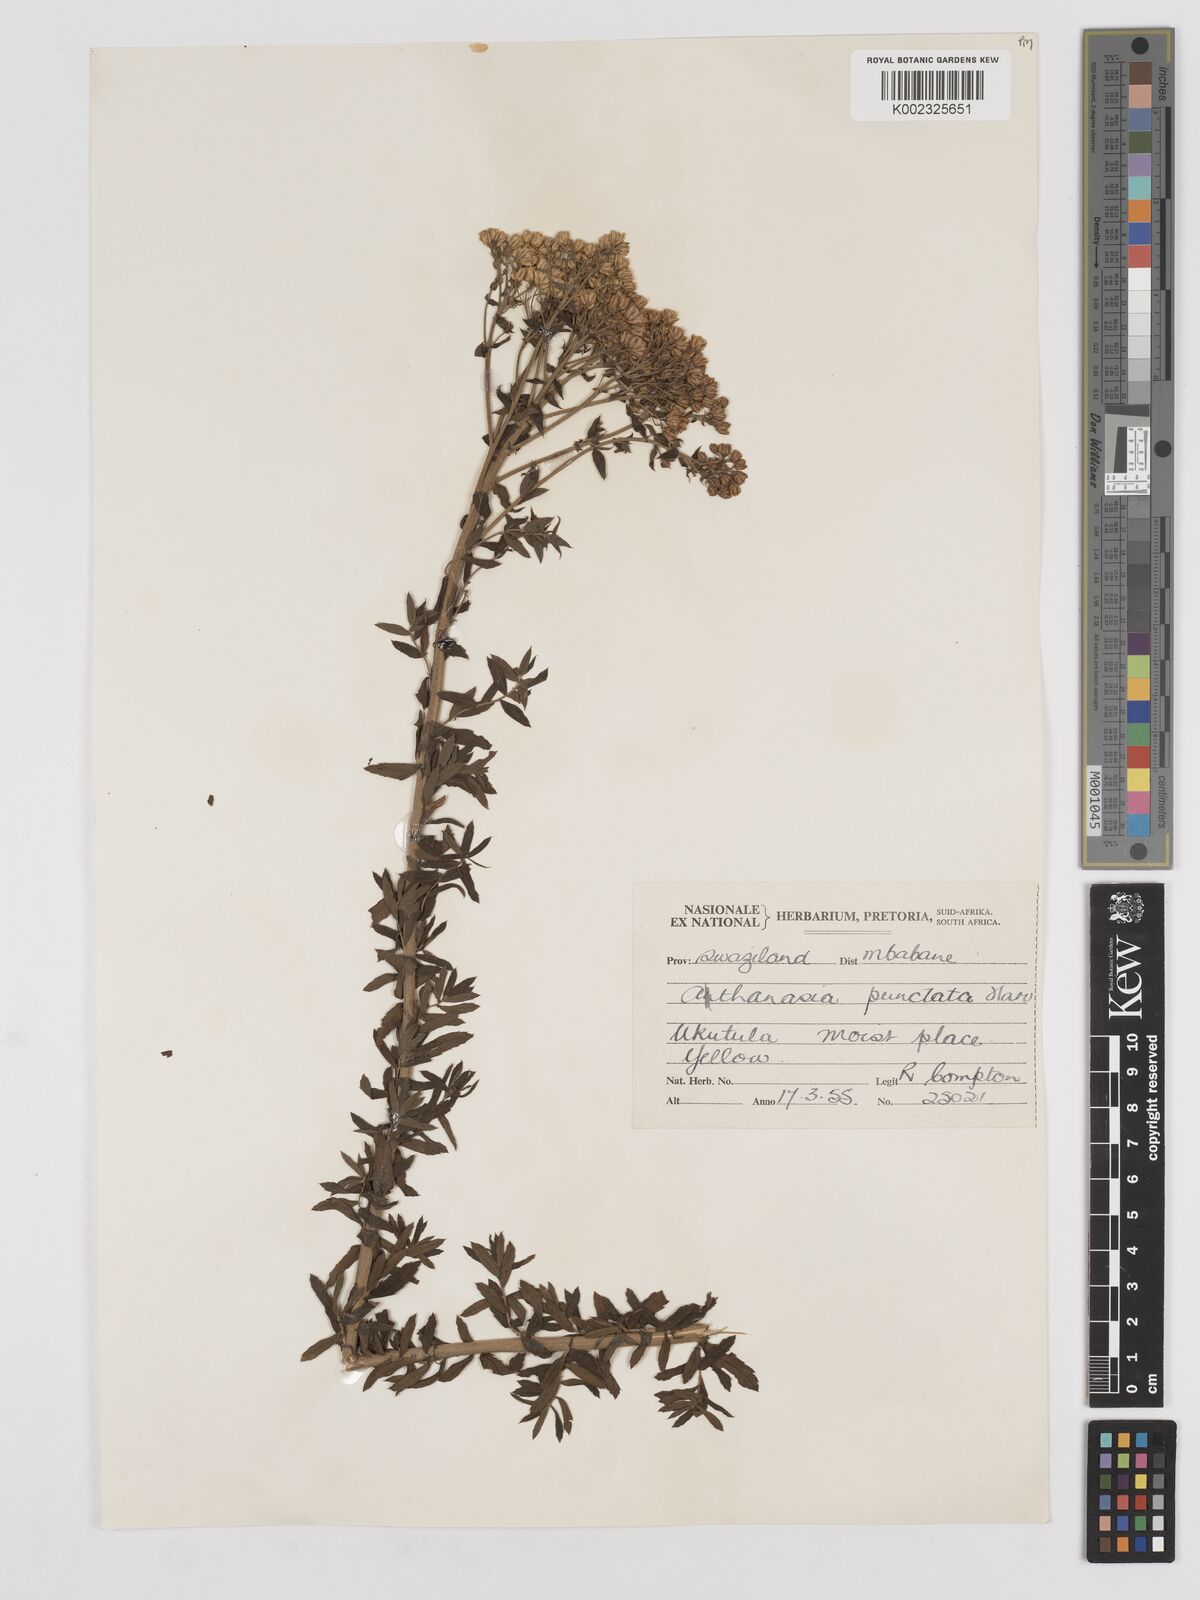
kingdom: Plantae
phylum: Tracheophyta
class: Magnoliopsida
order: Asterales
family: Asteraceae
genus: Inulanthera
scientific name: Inulanthera dregeana
